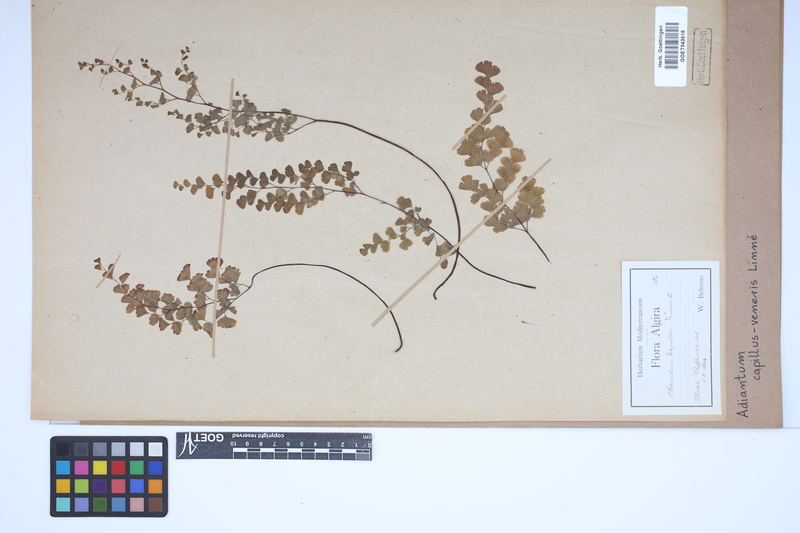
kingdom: Plantae
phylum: Tracheophyta
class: Polypodiopsida
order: Polypodiales
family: Pteridaceae
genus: Adiantum
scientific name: Adiantum capillus-veneris
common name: Maidenhair fern
